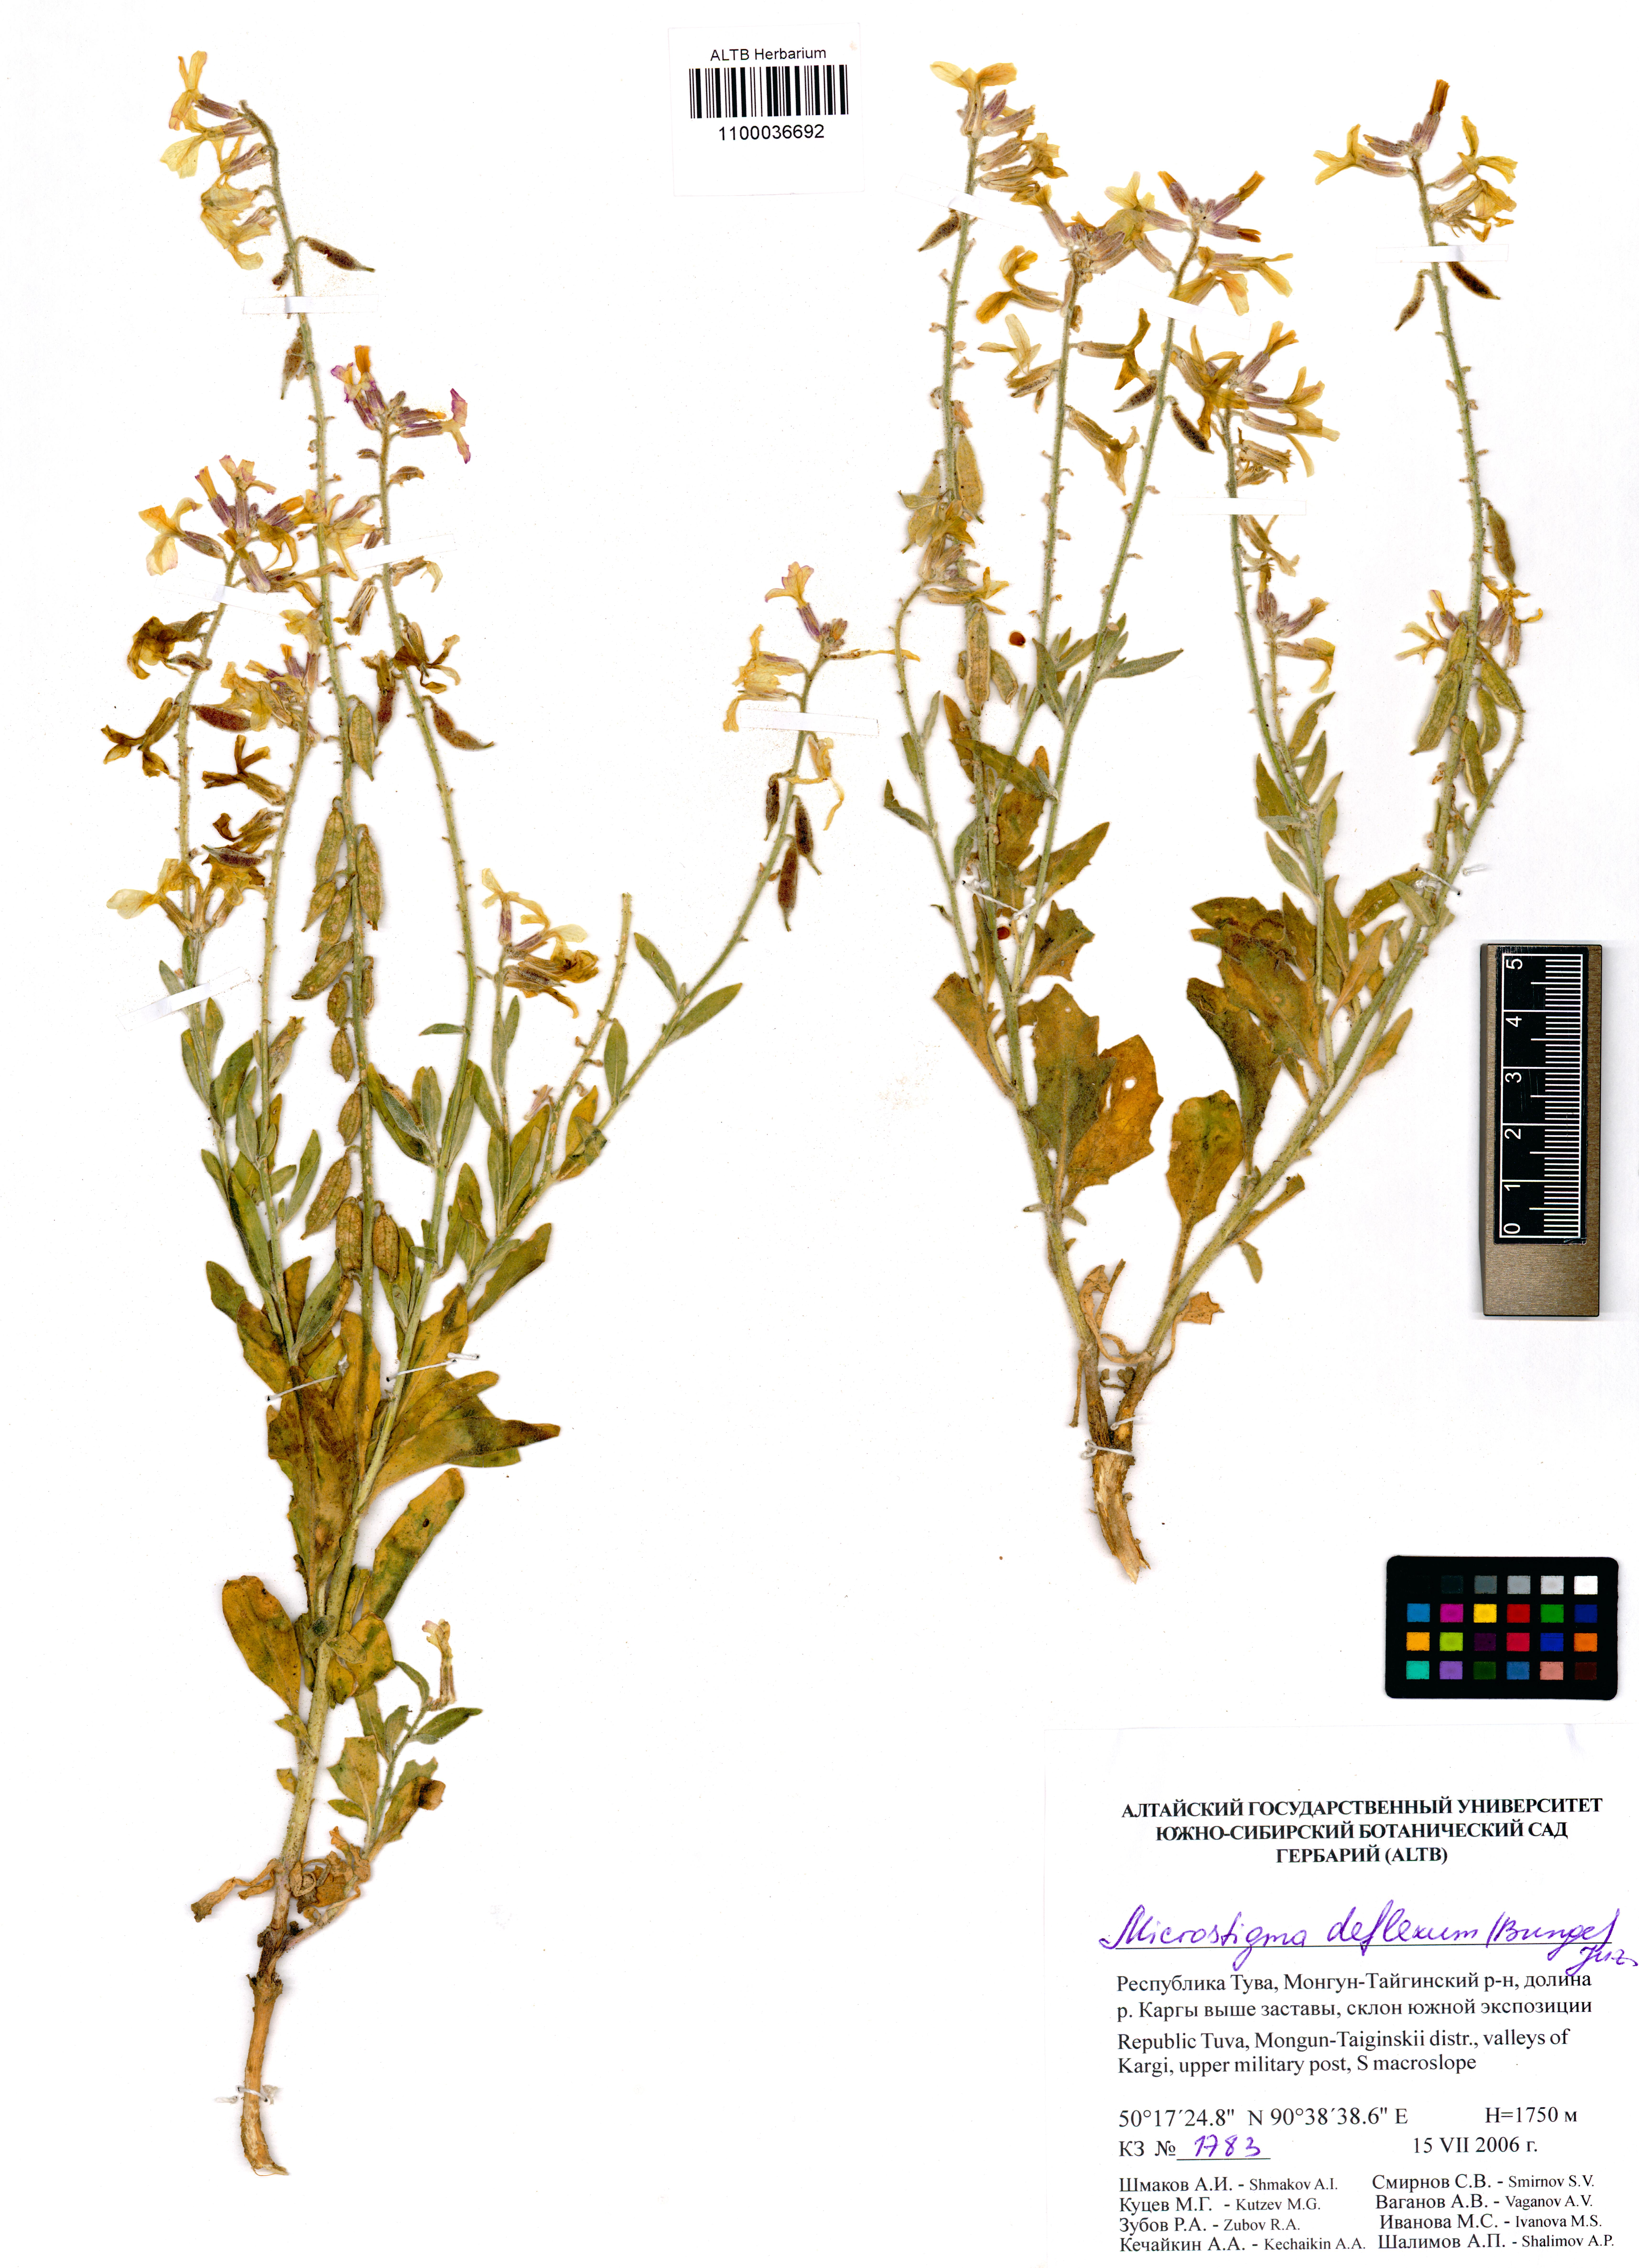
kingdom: Plantae
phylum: Tracheophyta
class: Magnoliopsida
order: Brassicales
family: Brassicaceae
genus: Microstigma
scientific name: Microstigma deflexum
